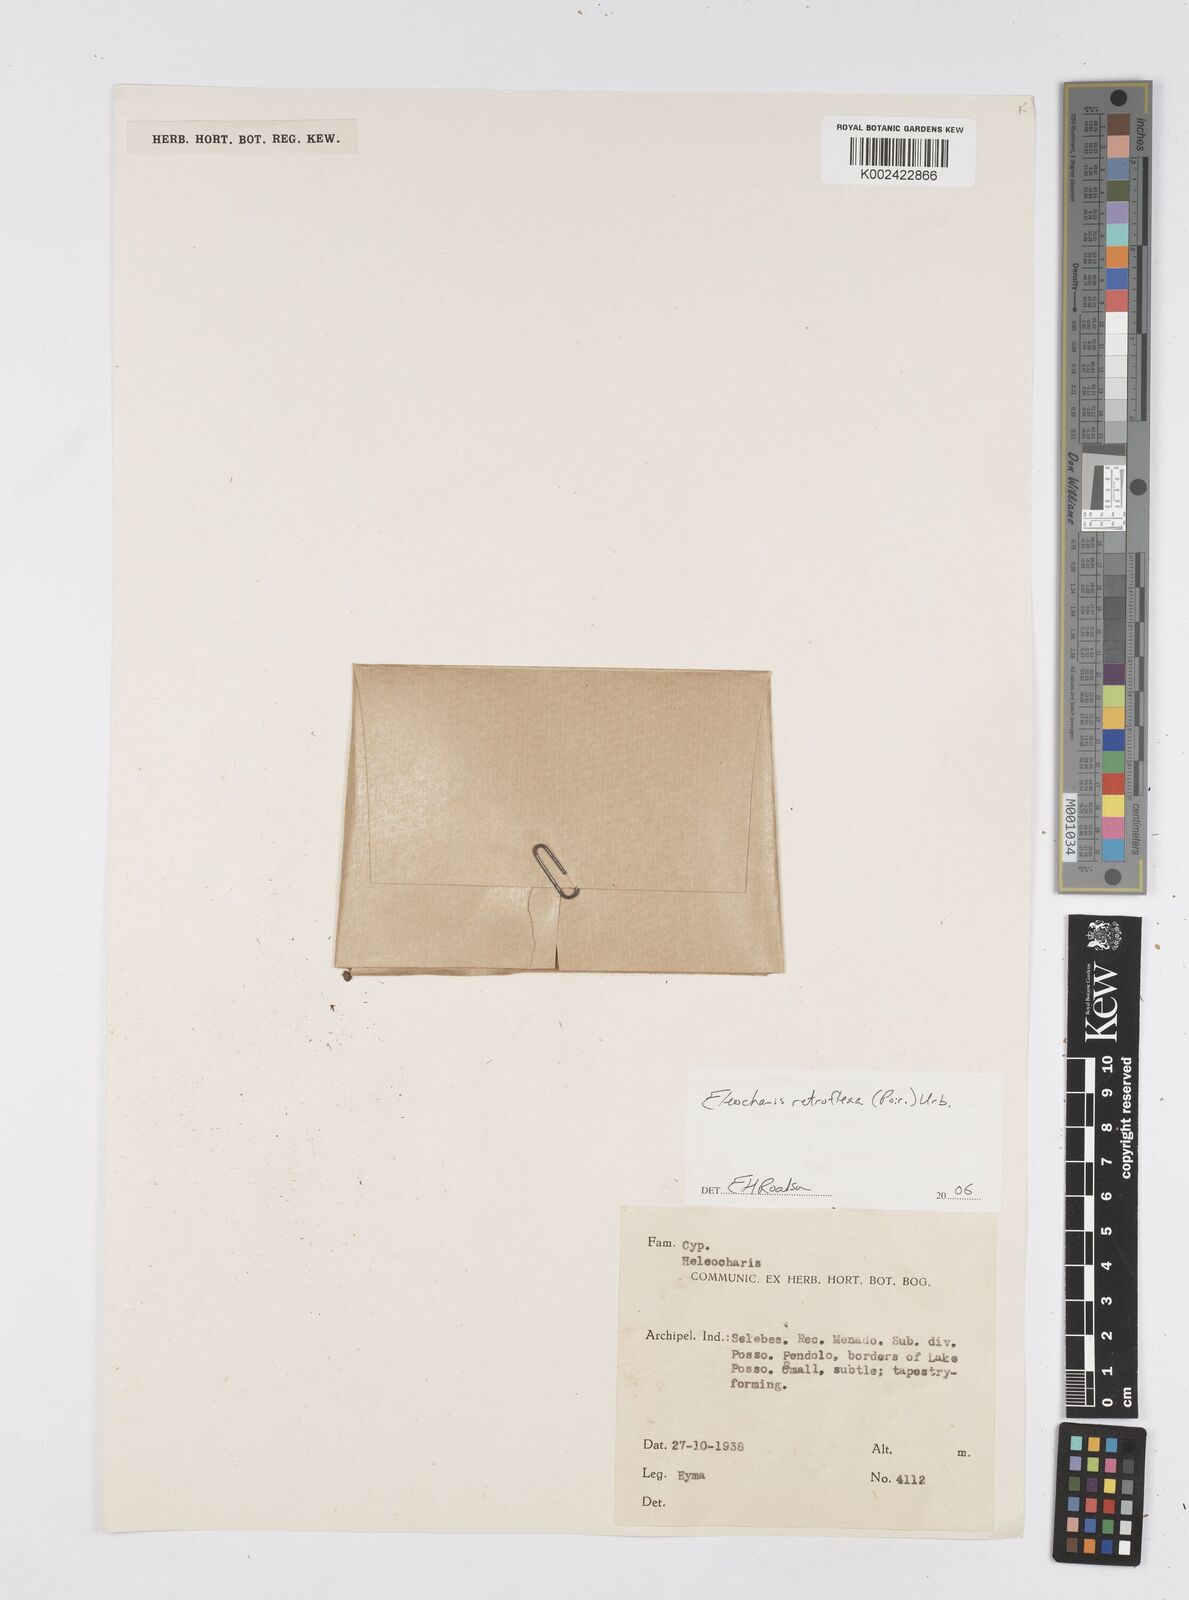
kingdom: Plantae
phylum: Tracheophyta
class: Liliopsida
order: Poales
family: Cyperaceae
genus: Eleocharis
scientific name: Eleocharis retroflexa
